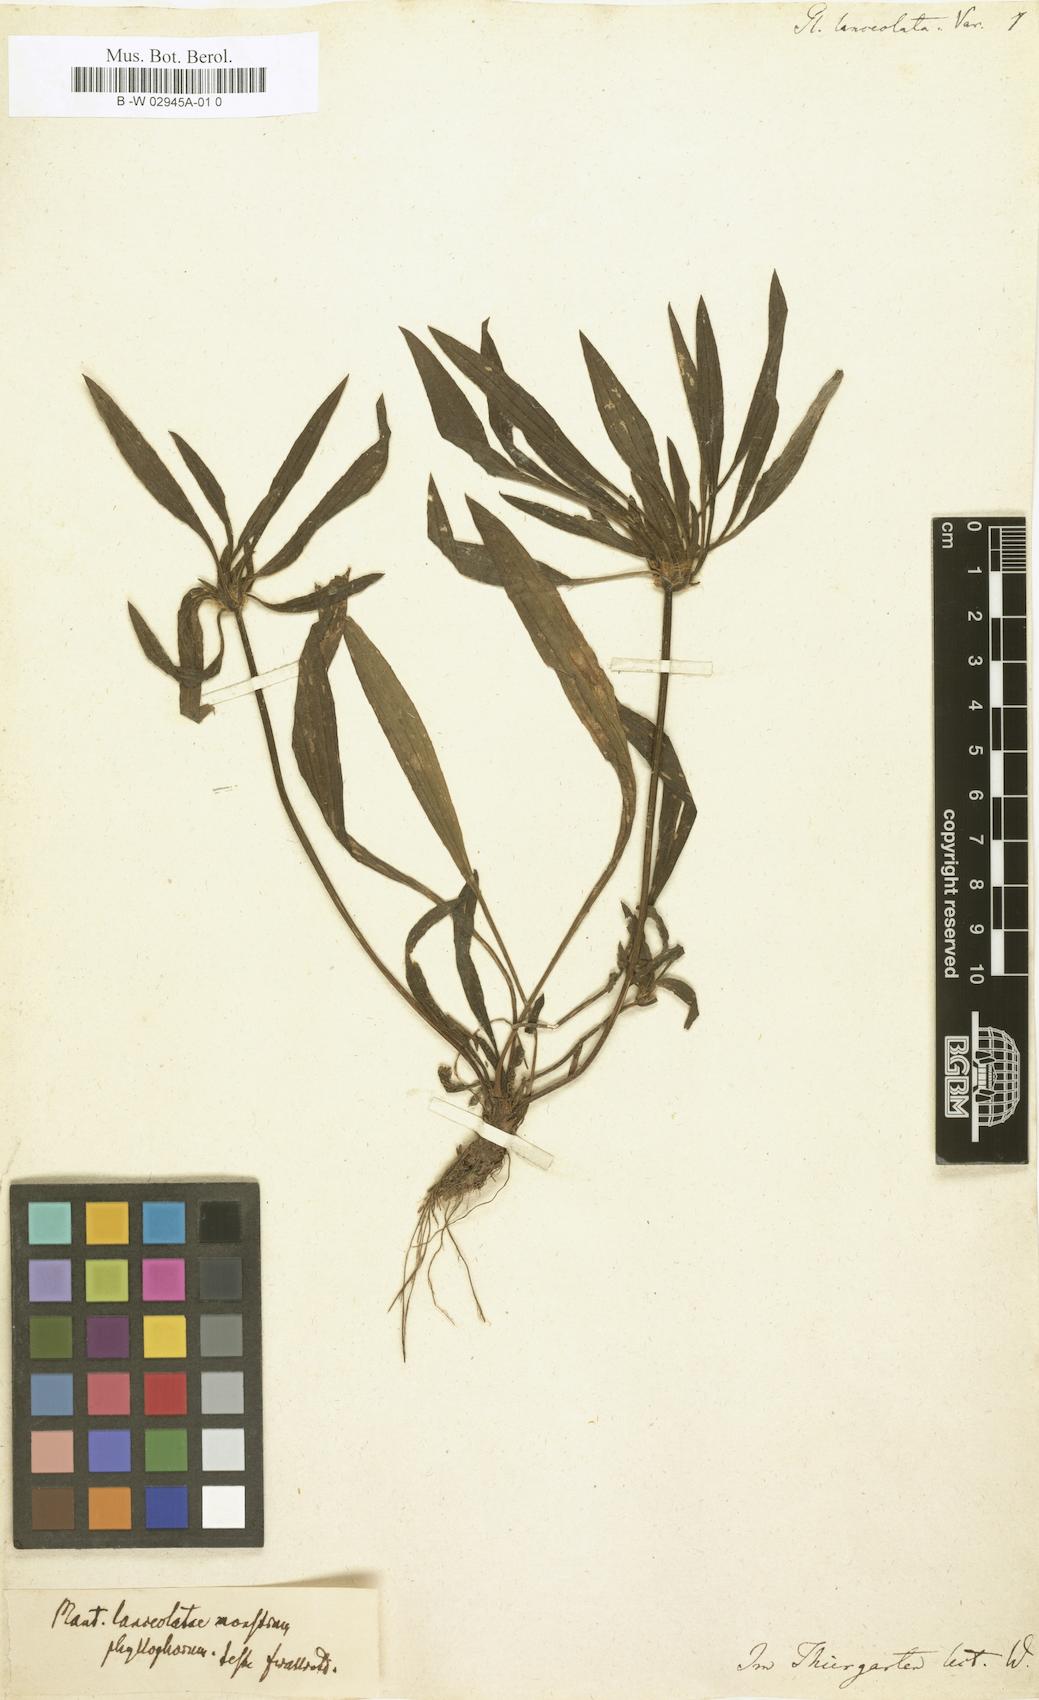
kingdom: Plantae
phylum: Tracheophyta
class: Magnoliopsida
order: Lamiales
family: Plantaginaceae
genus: Plantago
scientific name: Plantago lanceolata
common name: Ribwort plantain
